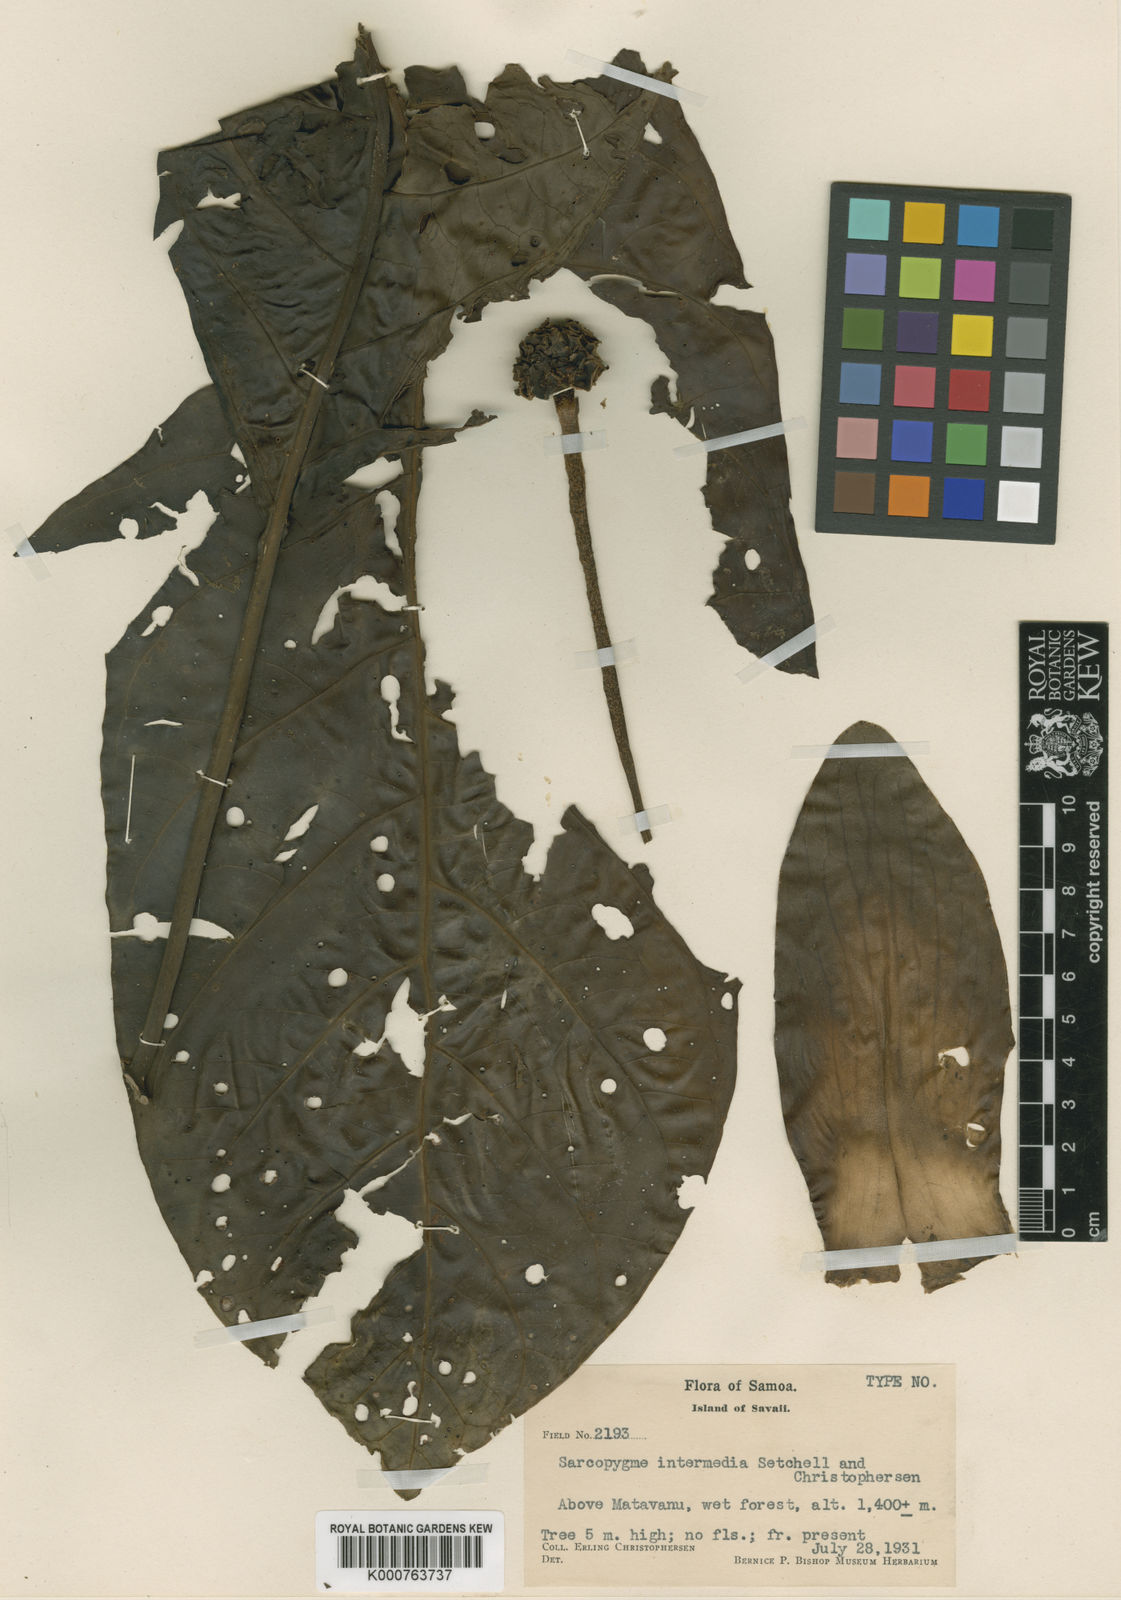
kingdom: Plantae
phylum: Tracheophyta
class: Magnoliopsida
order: Gentianales
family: Rubiaceae
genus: Morinda
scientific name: Morinda intermedia
